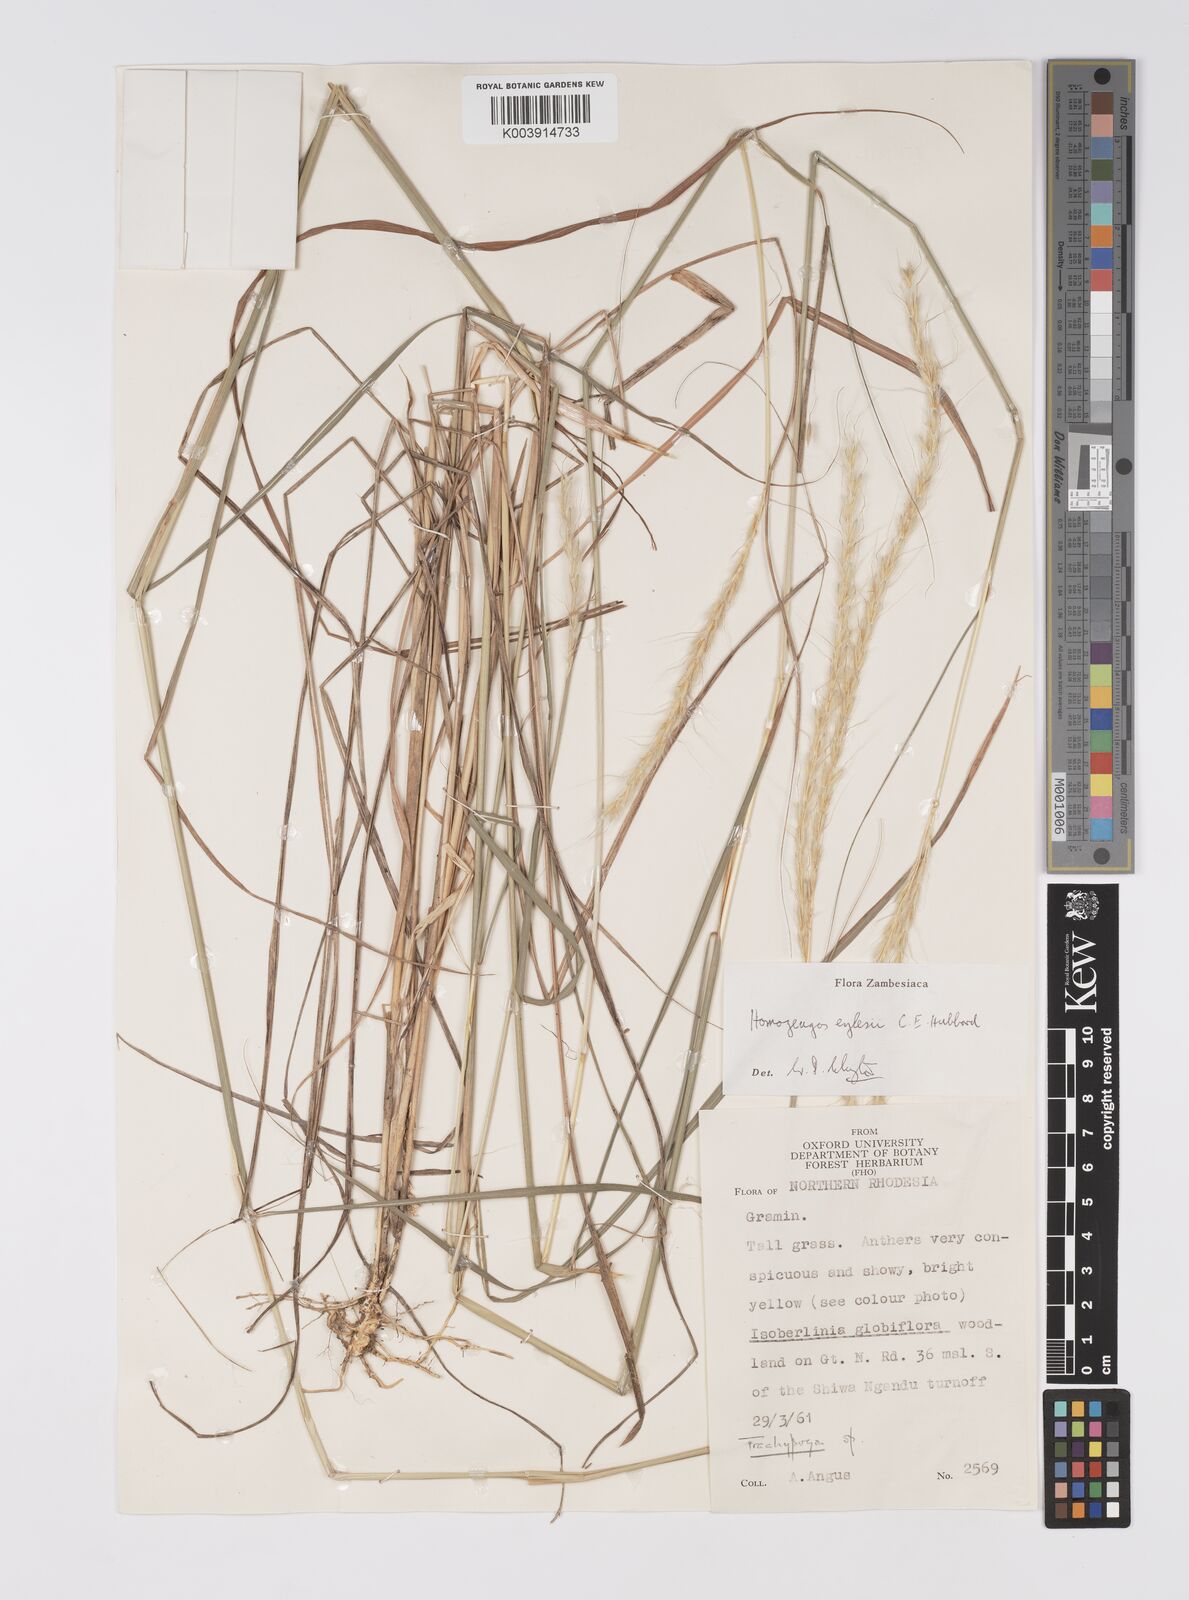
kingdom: Plantae
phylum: Tracheophyta
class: Liliopsida
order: Poales
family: Poaceae
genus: Homozeugos
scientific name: Homozeugos eylesii
